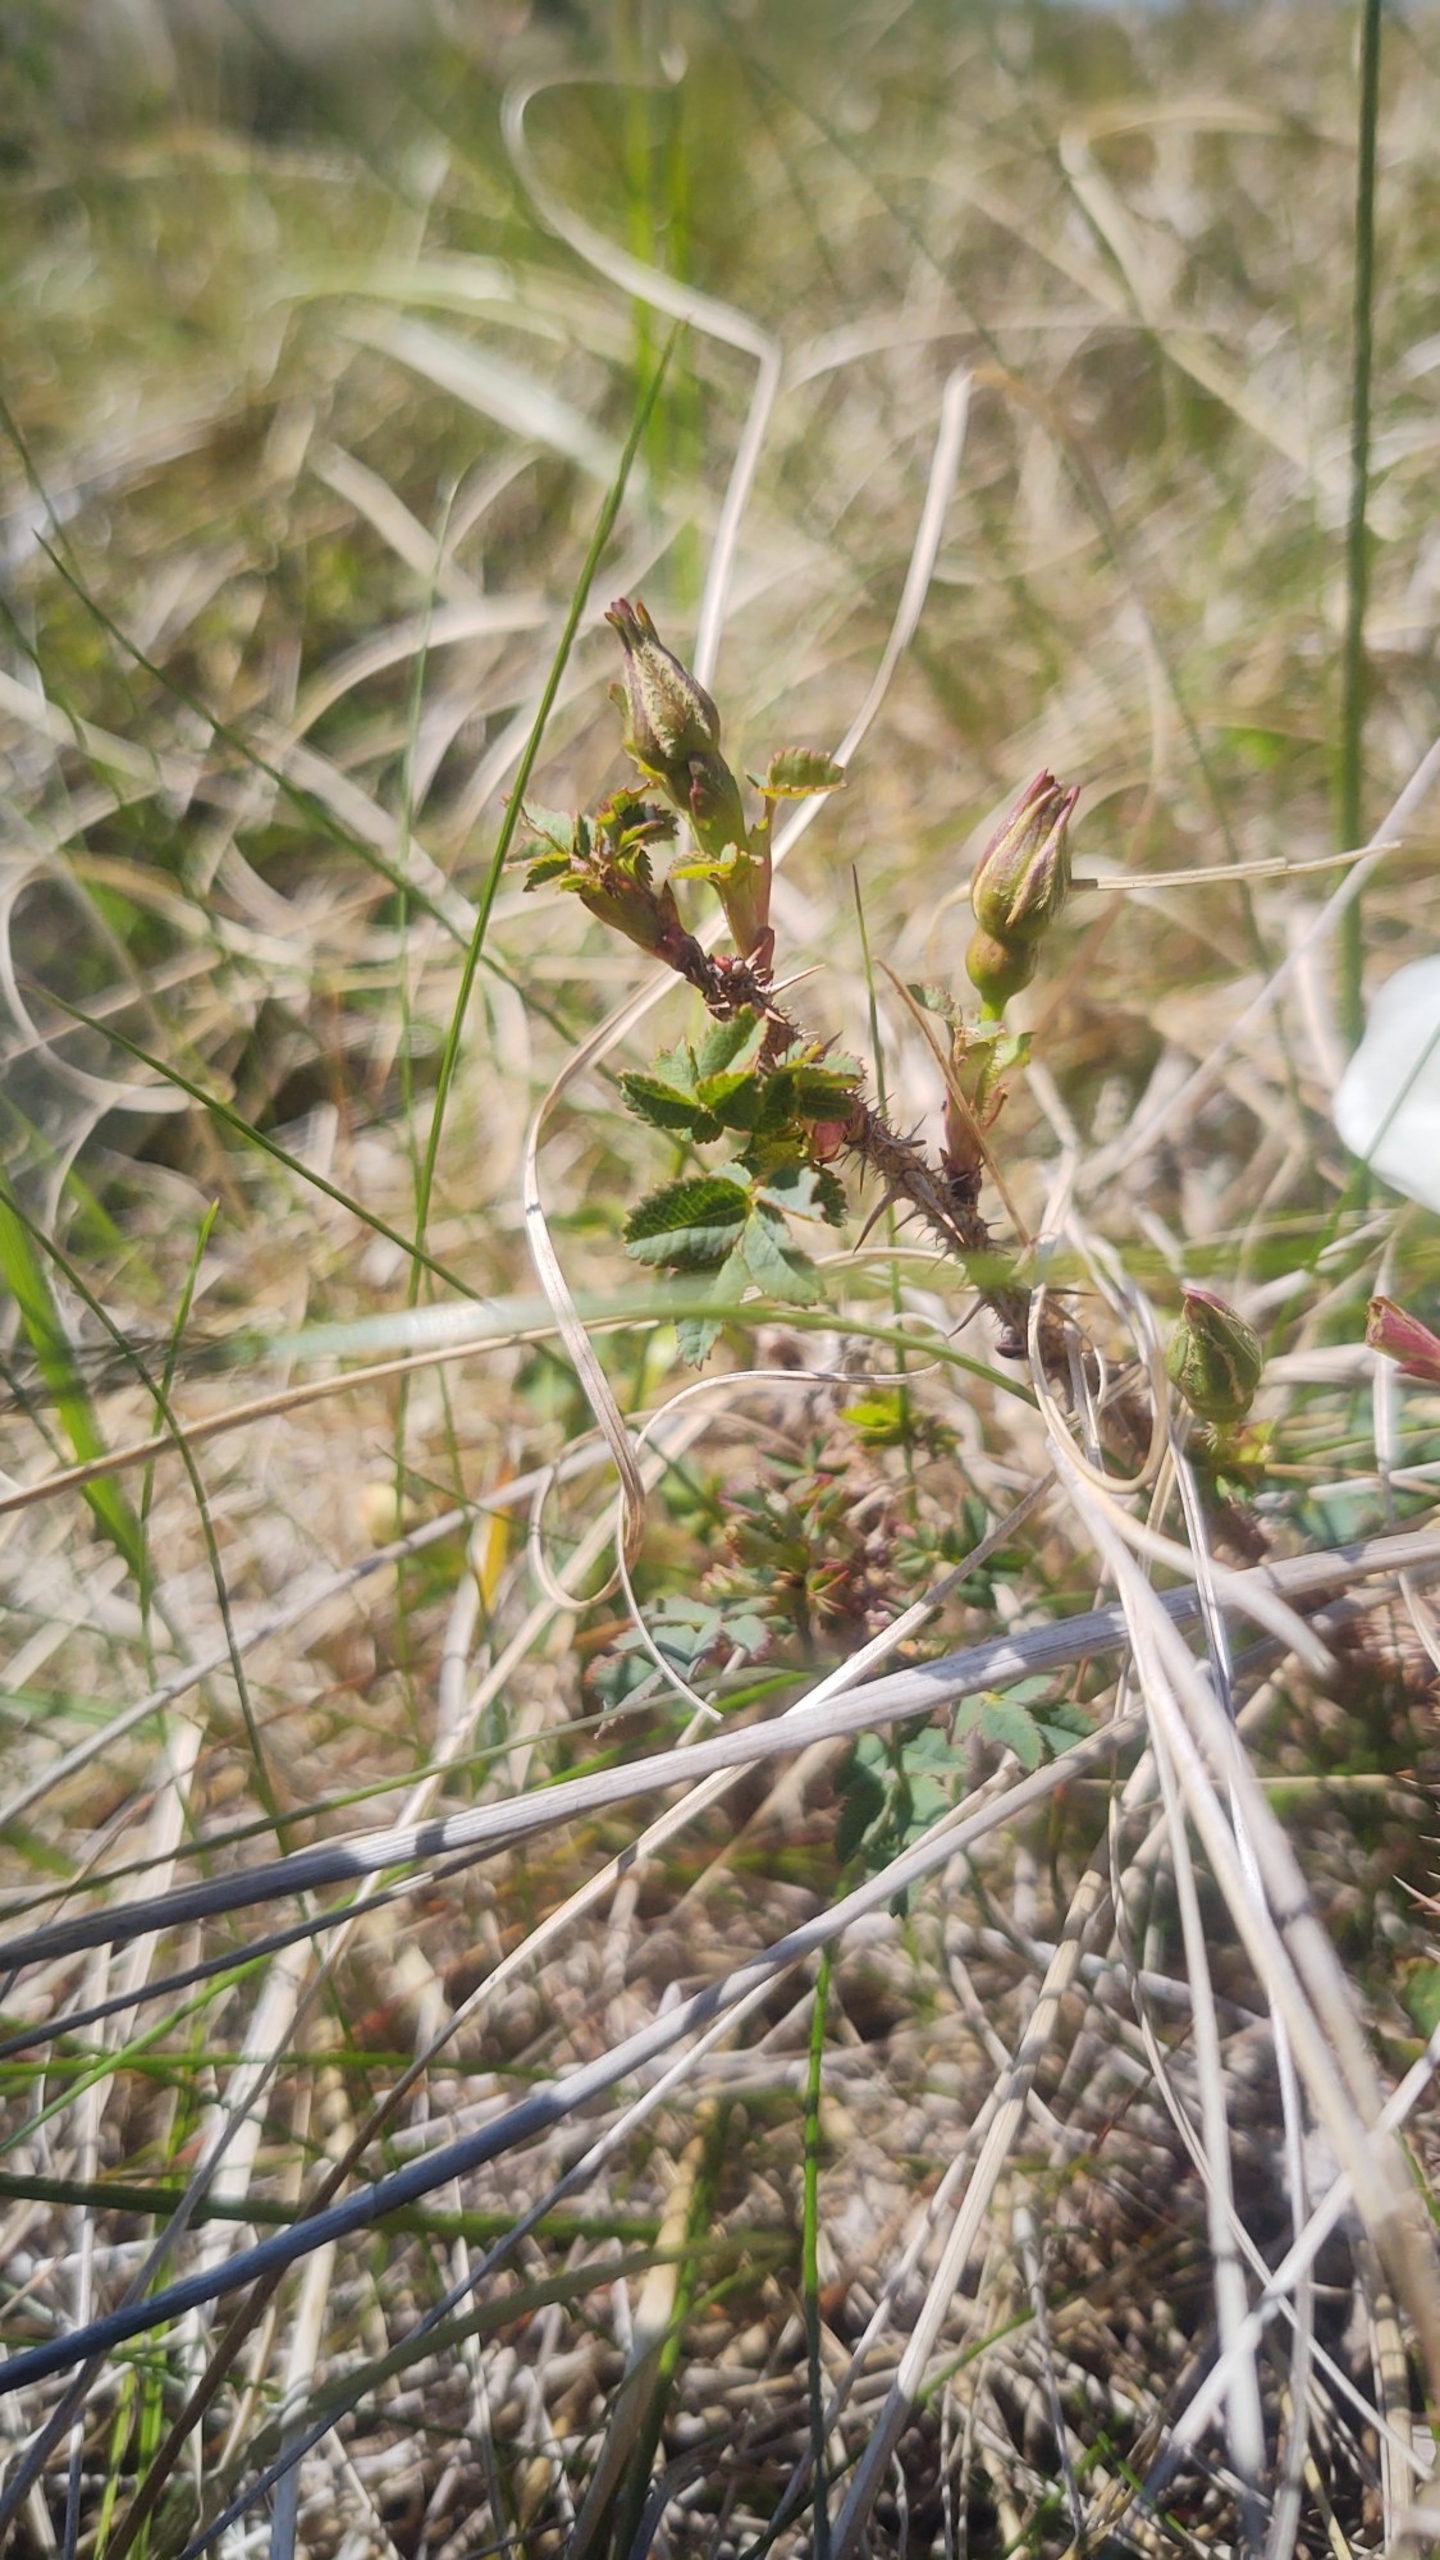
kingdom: Plantae
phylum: Tracheophyta
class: Magnoliopsida
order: Rosales
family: Rosaceae
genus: Rosa
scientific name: Rosa spinosissima
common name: Klit-rose
